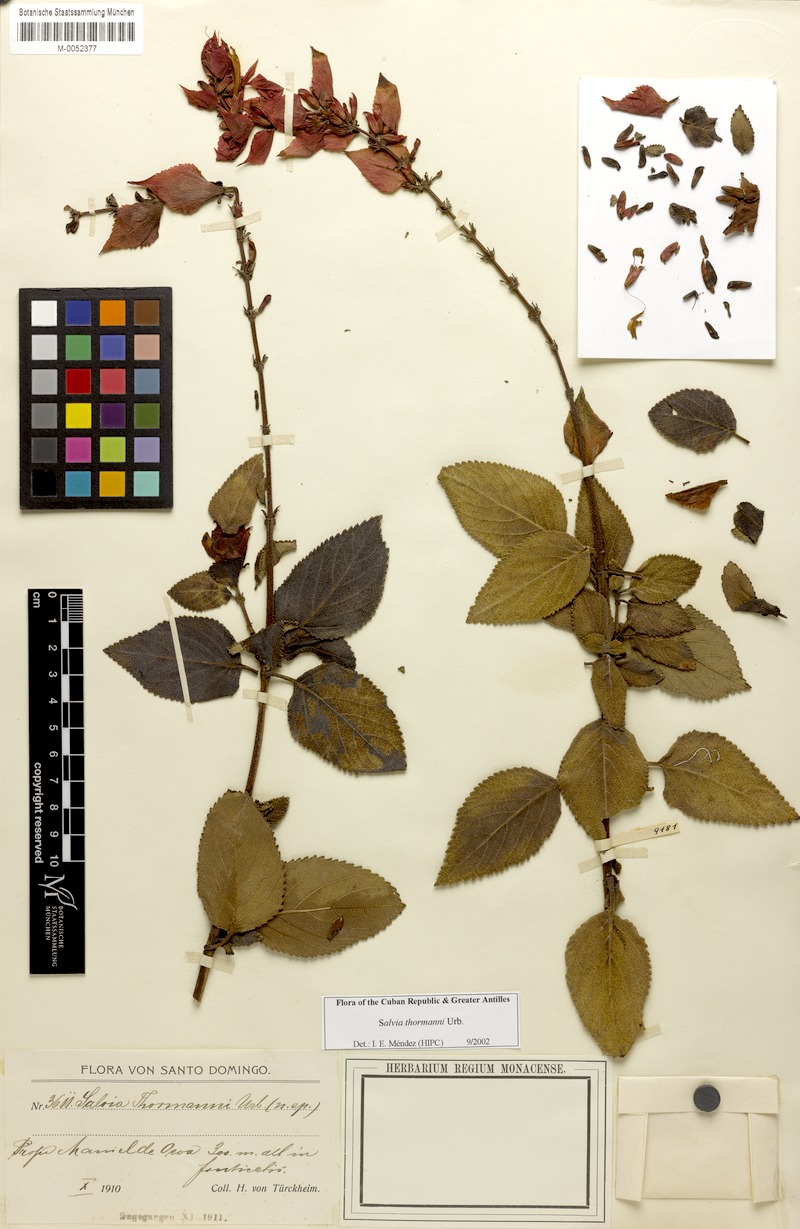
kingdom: Plantae
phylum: Tracheophyta
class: Magnoliopsida
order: Lamiales
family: Lamiaceae
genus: Salvia
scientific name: Salvia thormannii
